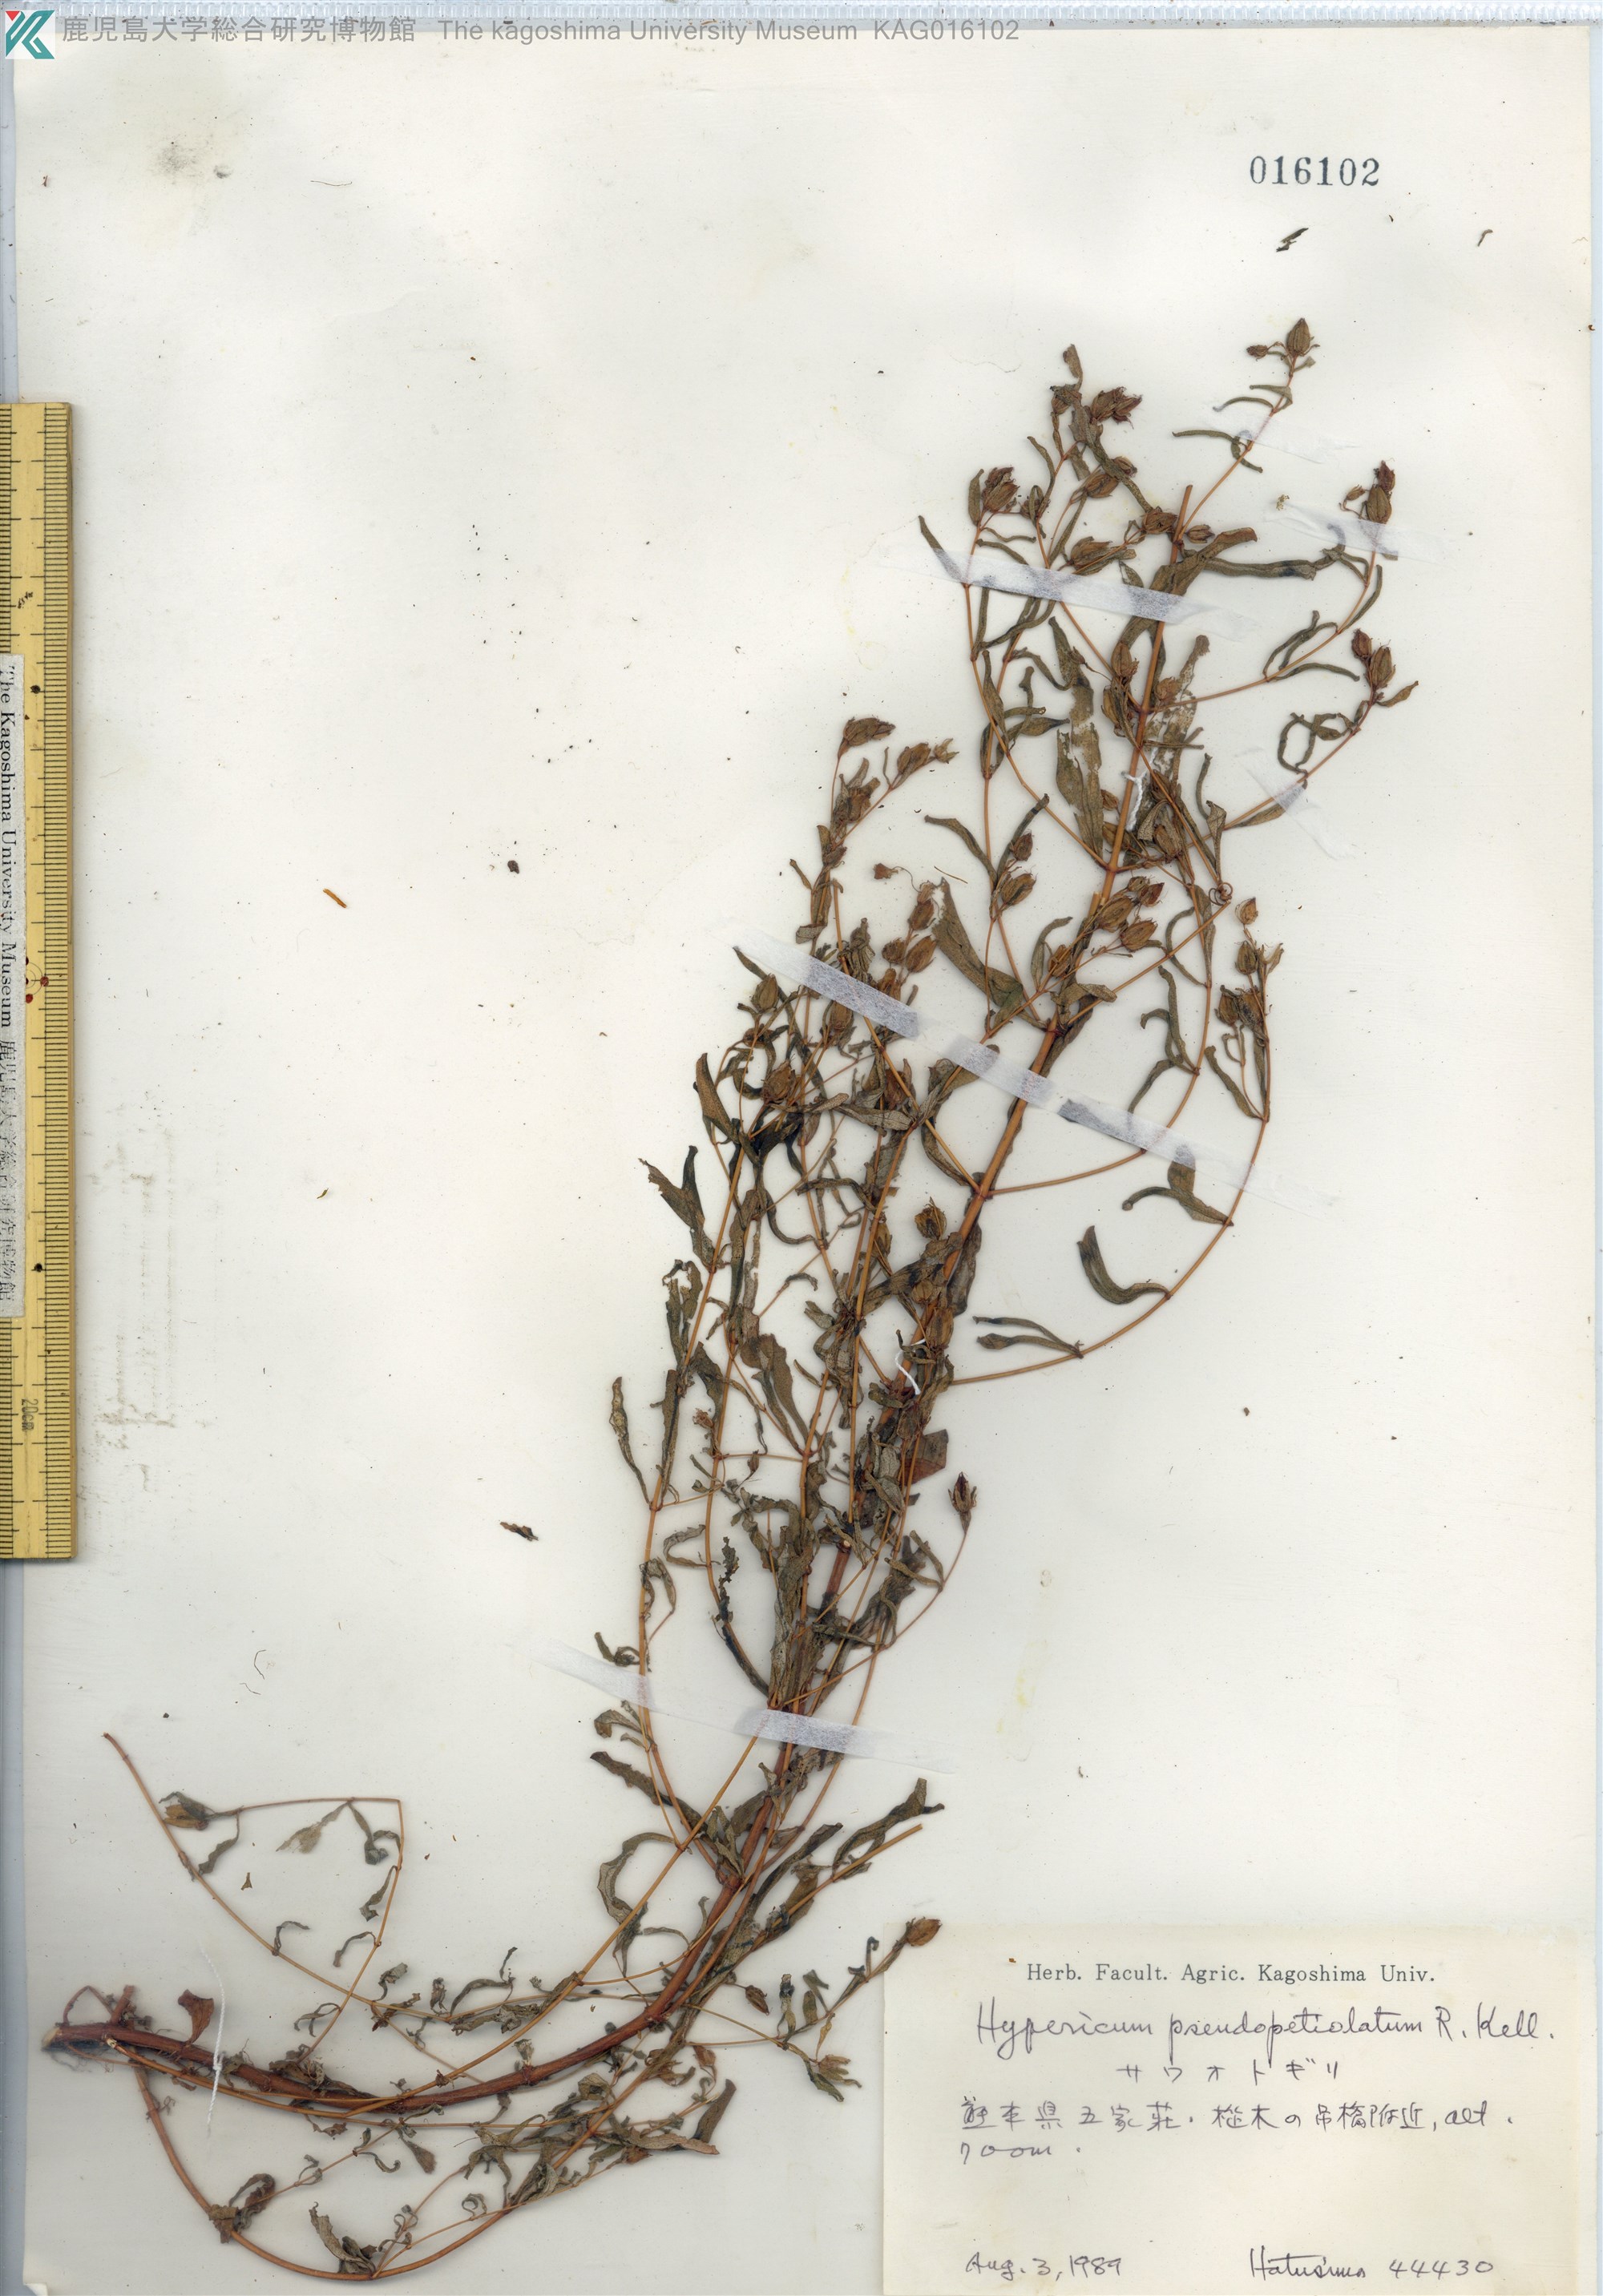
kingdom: Plantae
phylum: Tracheophyta
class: Magnoliopsida
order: Malpighiales
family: Hypericaceae
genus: Hypericum
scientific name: Hypericum pseudopetiolatum
